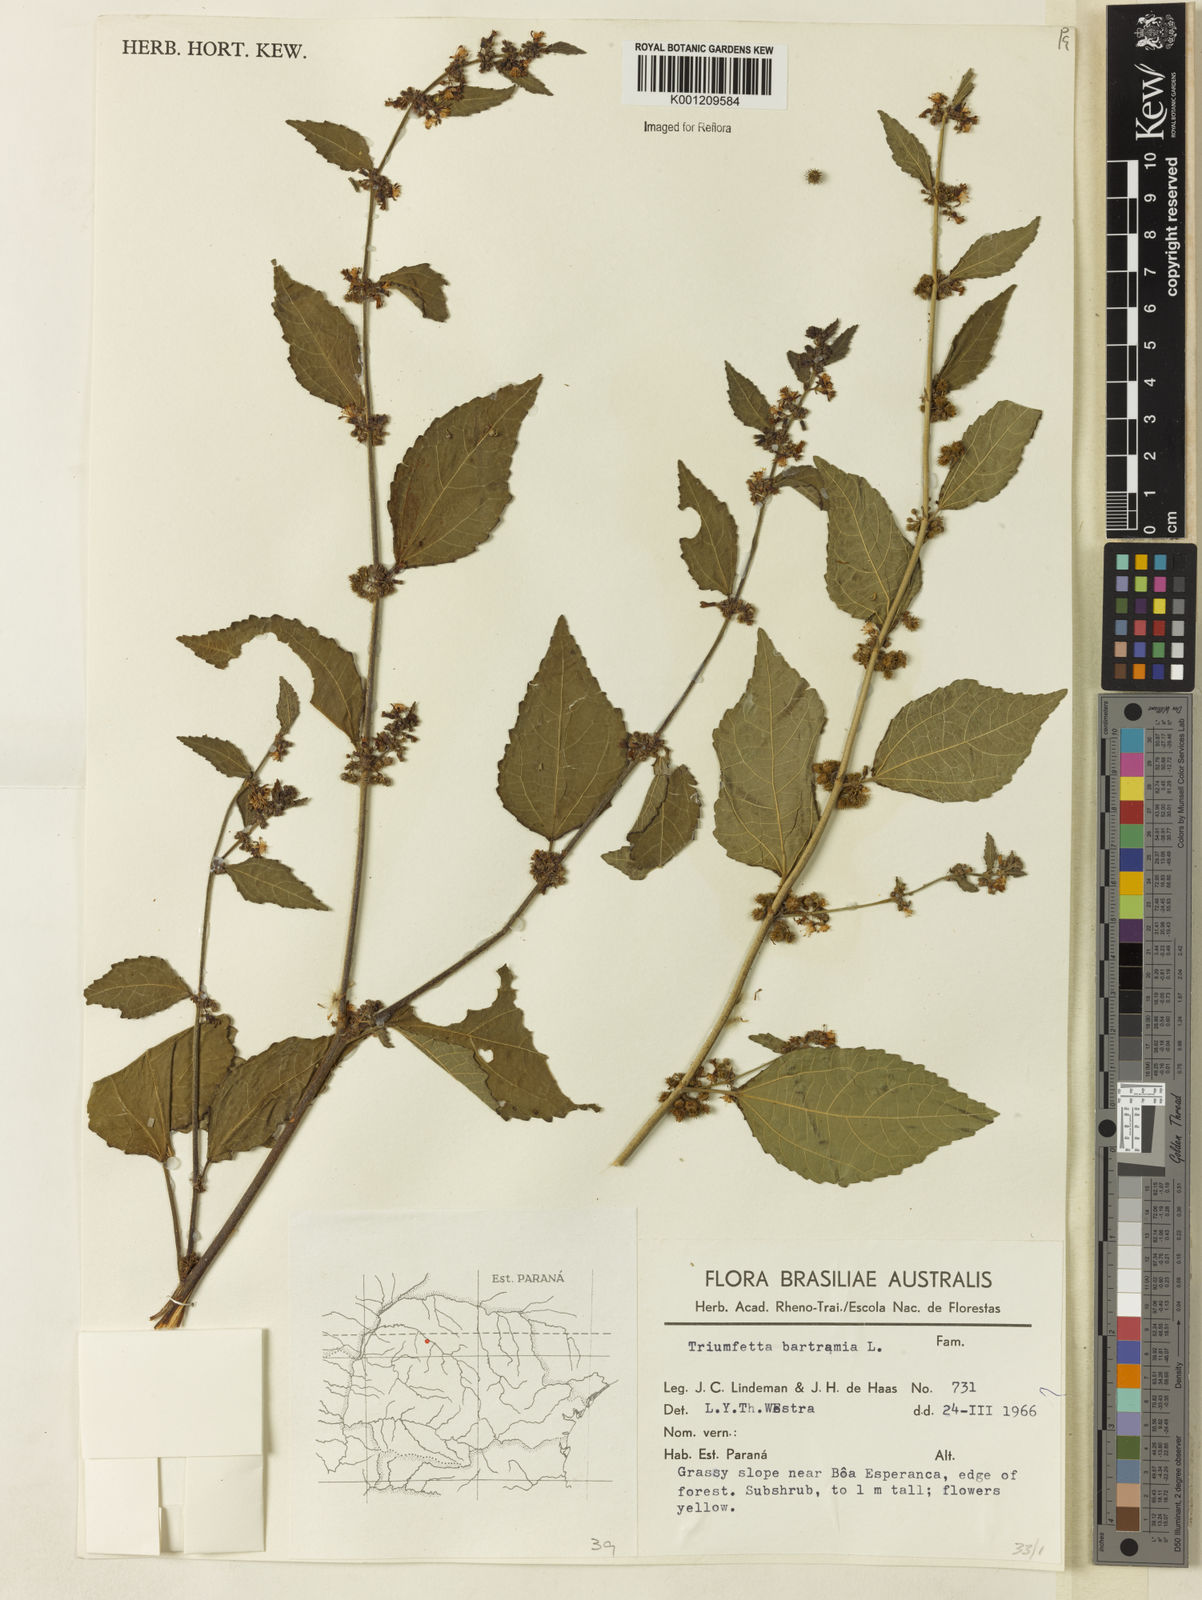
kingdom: Plantae
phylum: Tracheophyta
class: Magnoliopsida
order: Malvales
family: Malvaceae
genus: Triumfetta
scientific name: Triumfetta rhomboidea
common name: Diamond burbark
